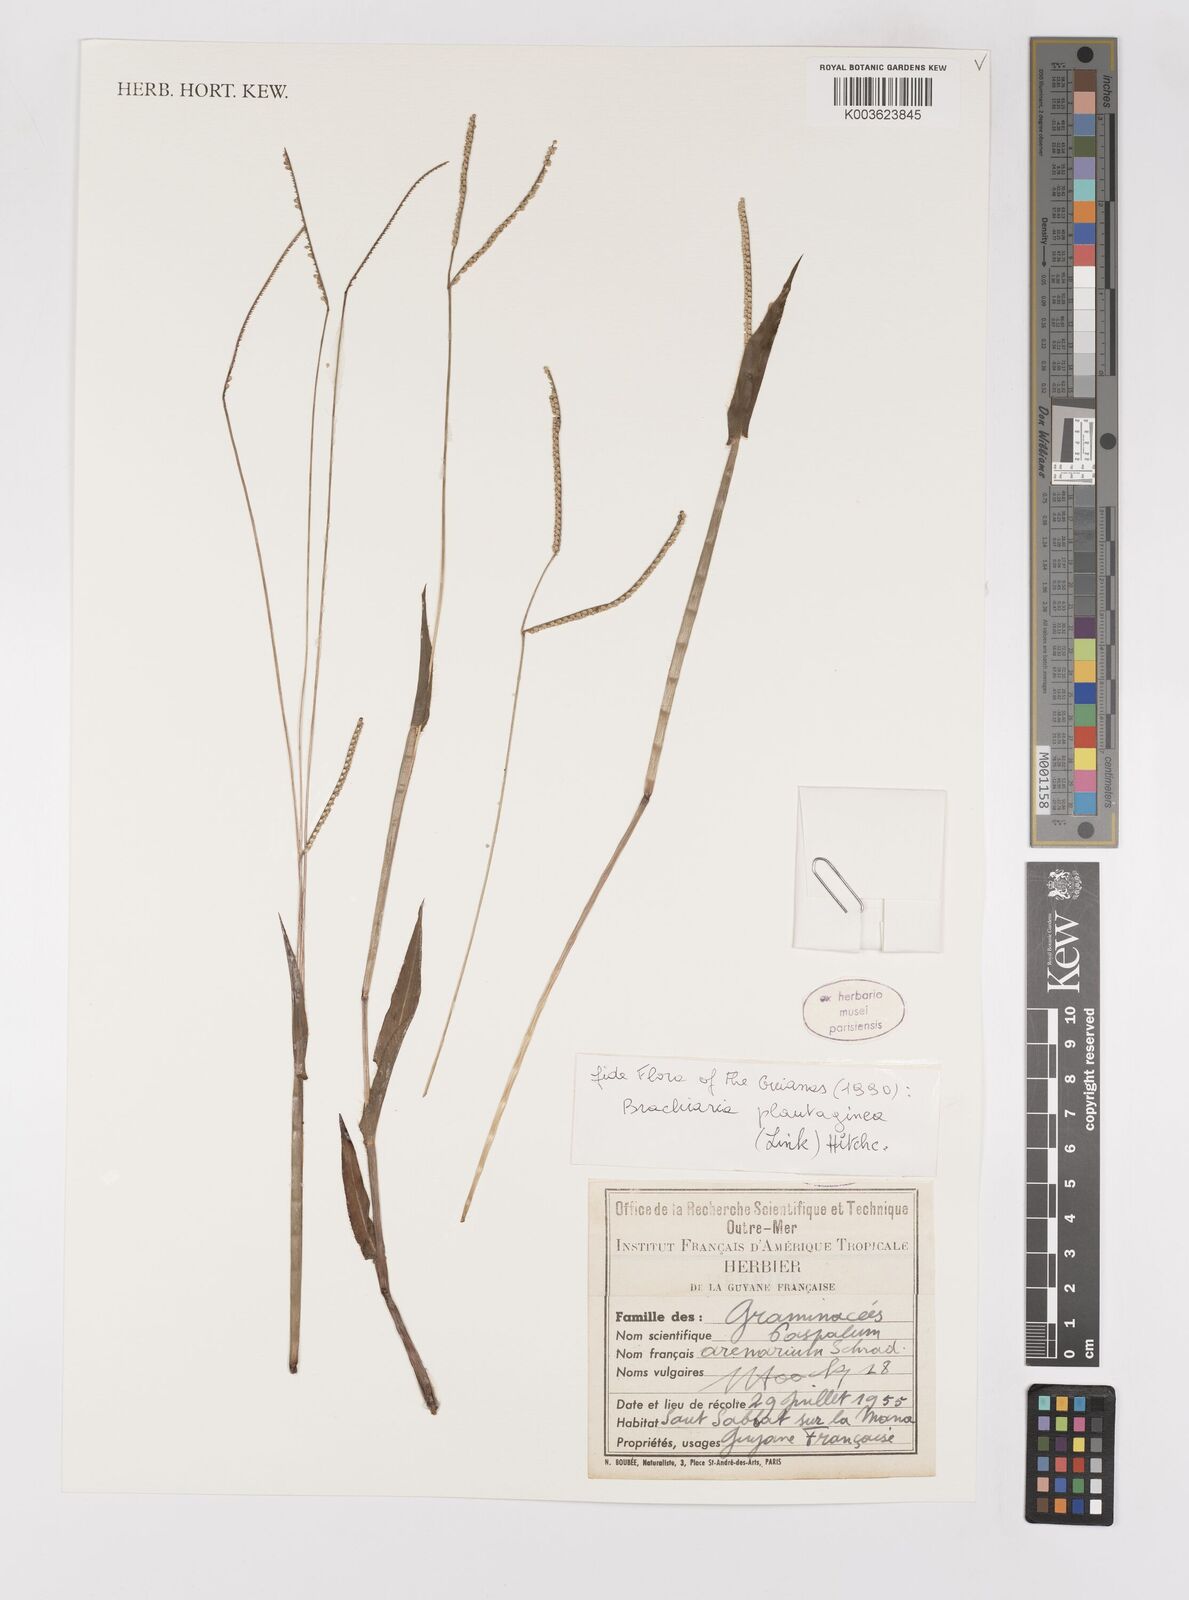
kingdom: Plantae
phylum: Tracheophyta
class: Liliopsida
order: Poales
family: Poaceae
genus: Paspalum
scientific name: Paspalum arenarium
